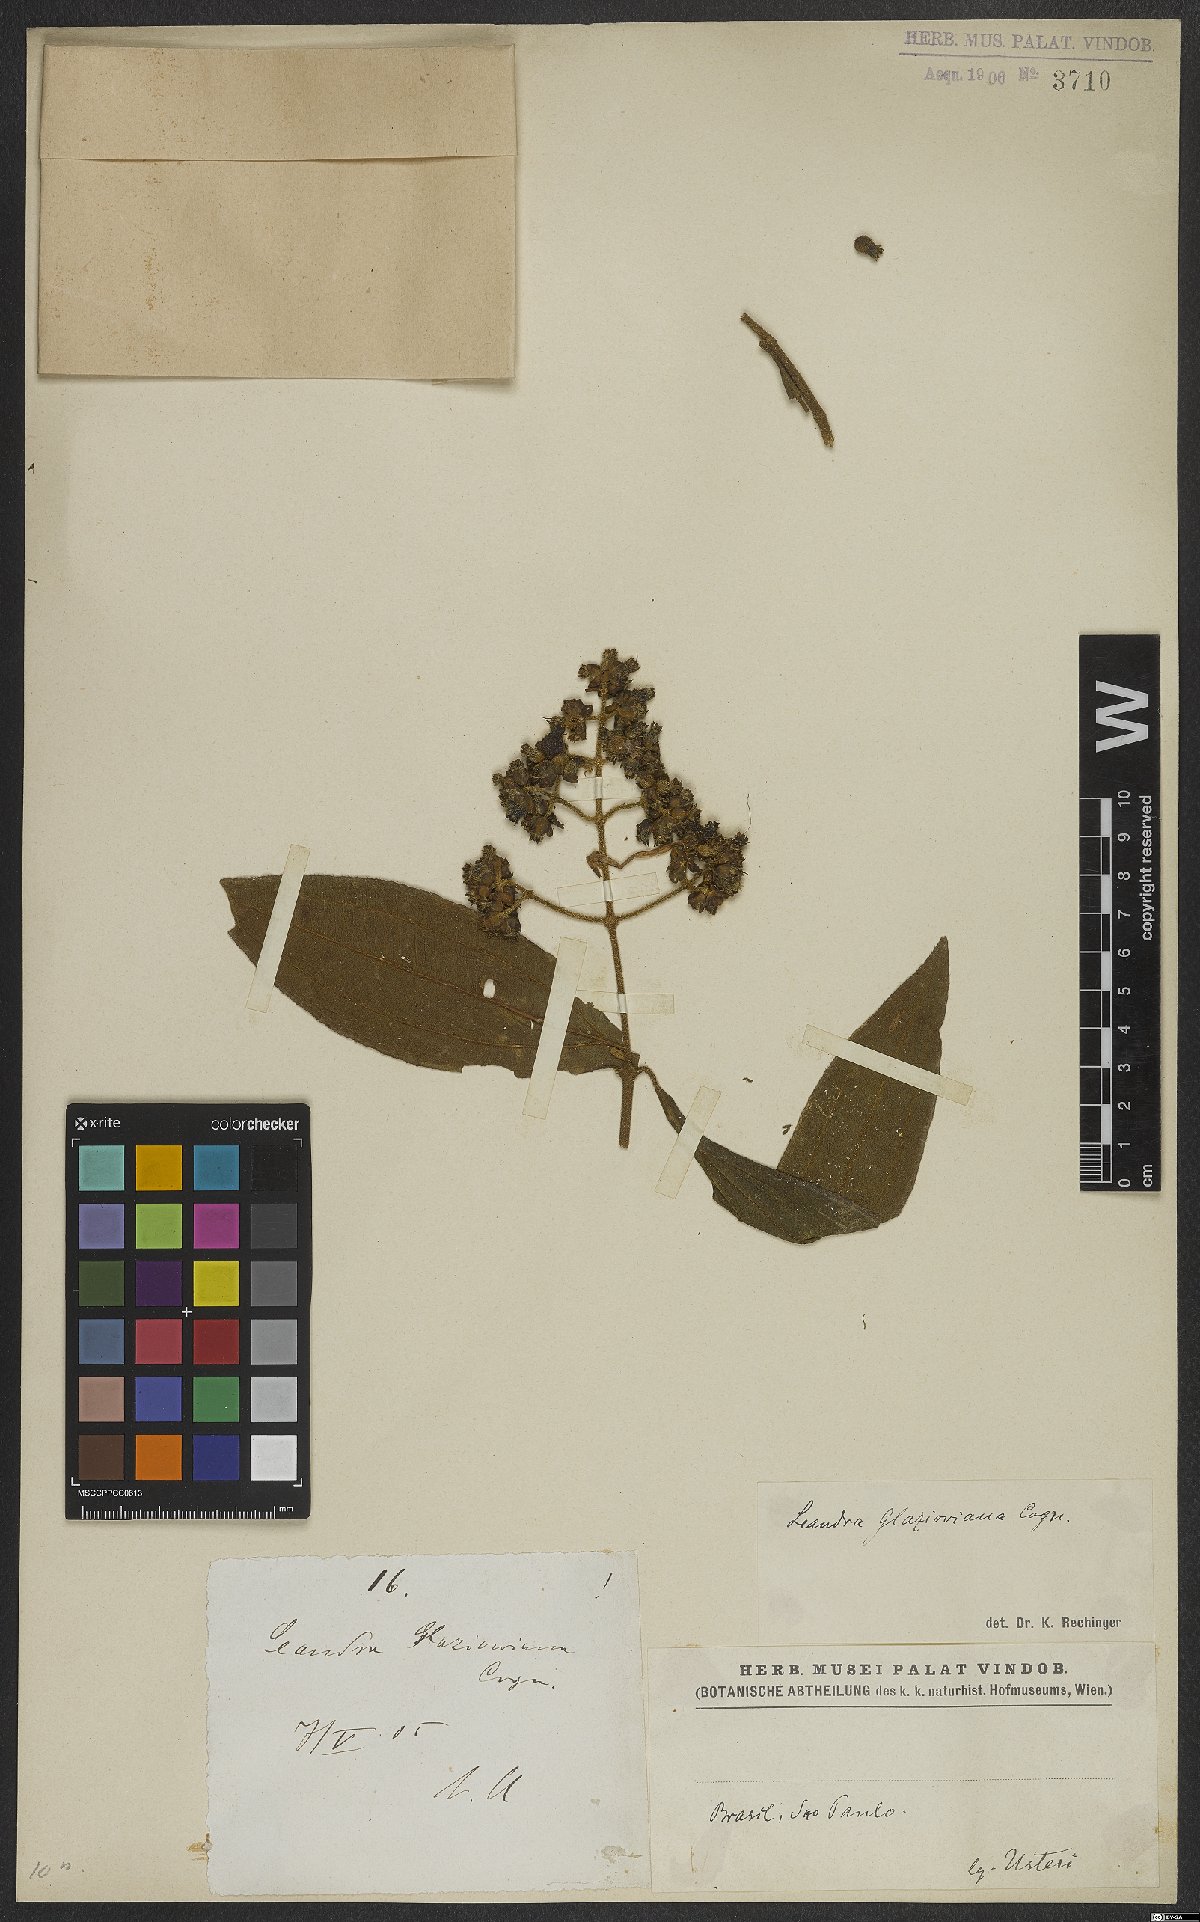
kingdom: Plantae
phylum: Tracheophyta
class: Magnoliopsida
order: Myrtales
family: Melastomataceae
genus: Miconia
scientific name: Miconia pubistyla
